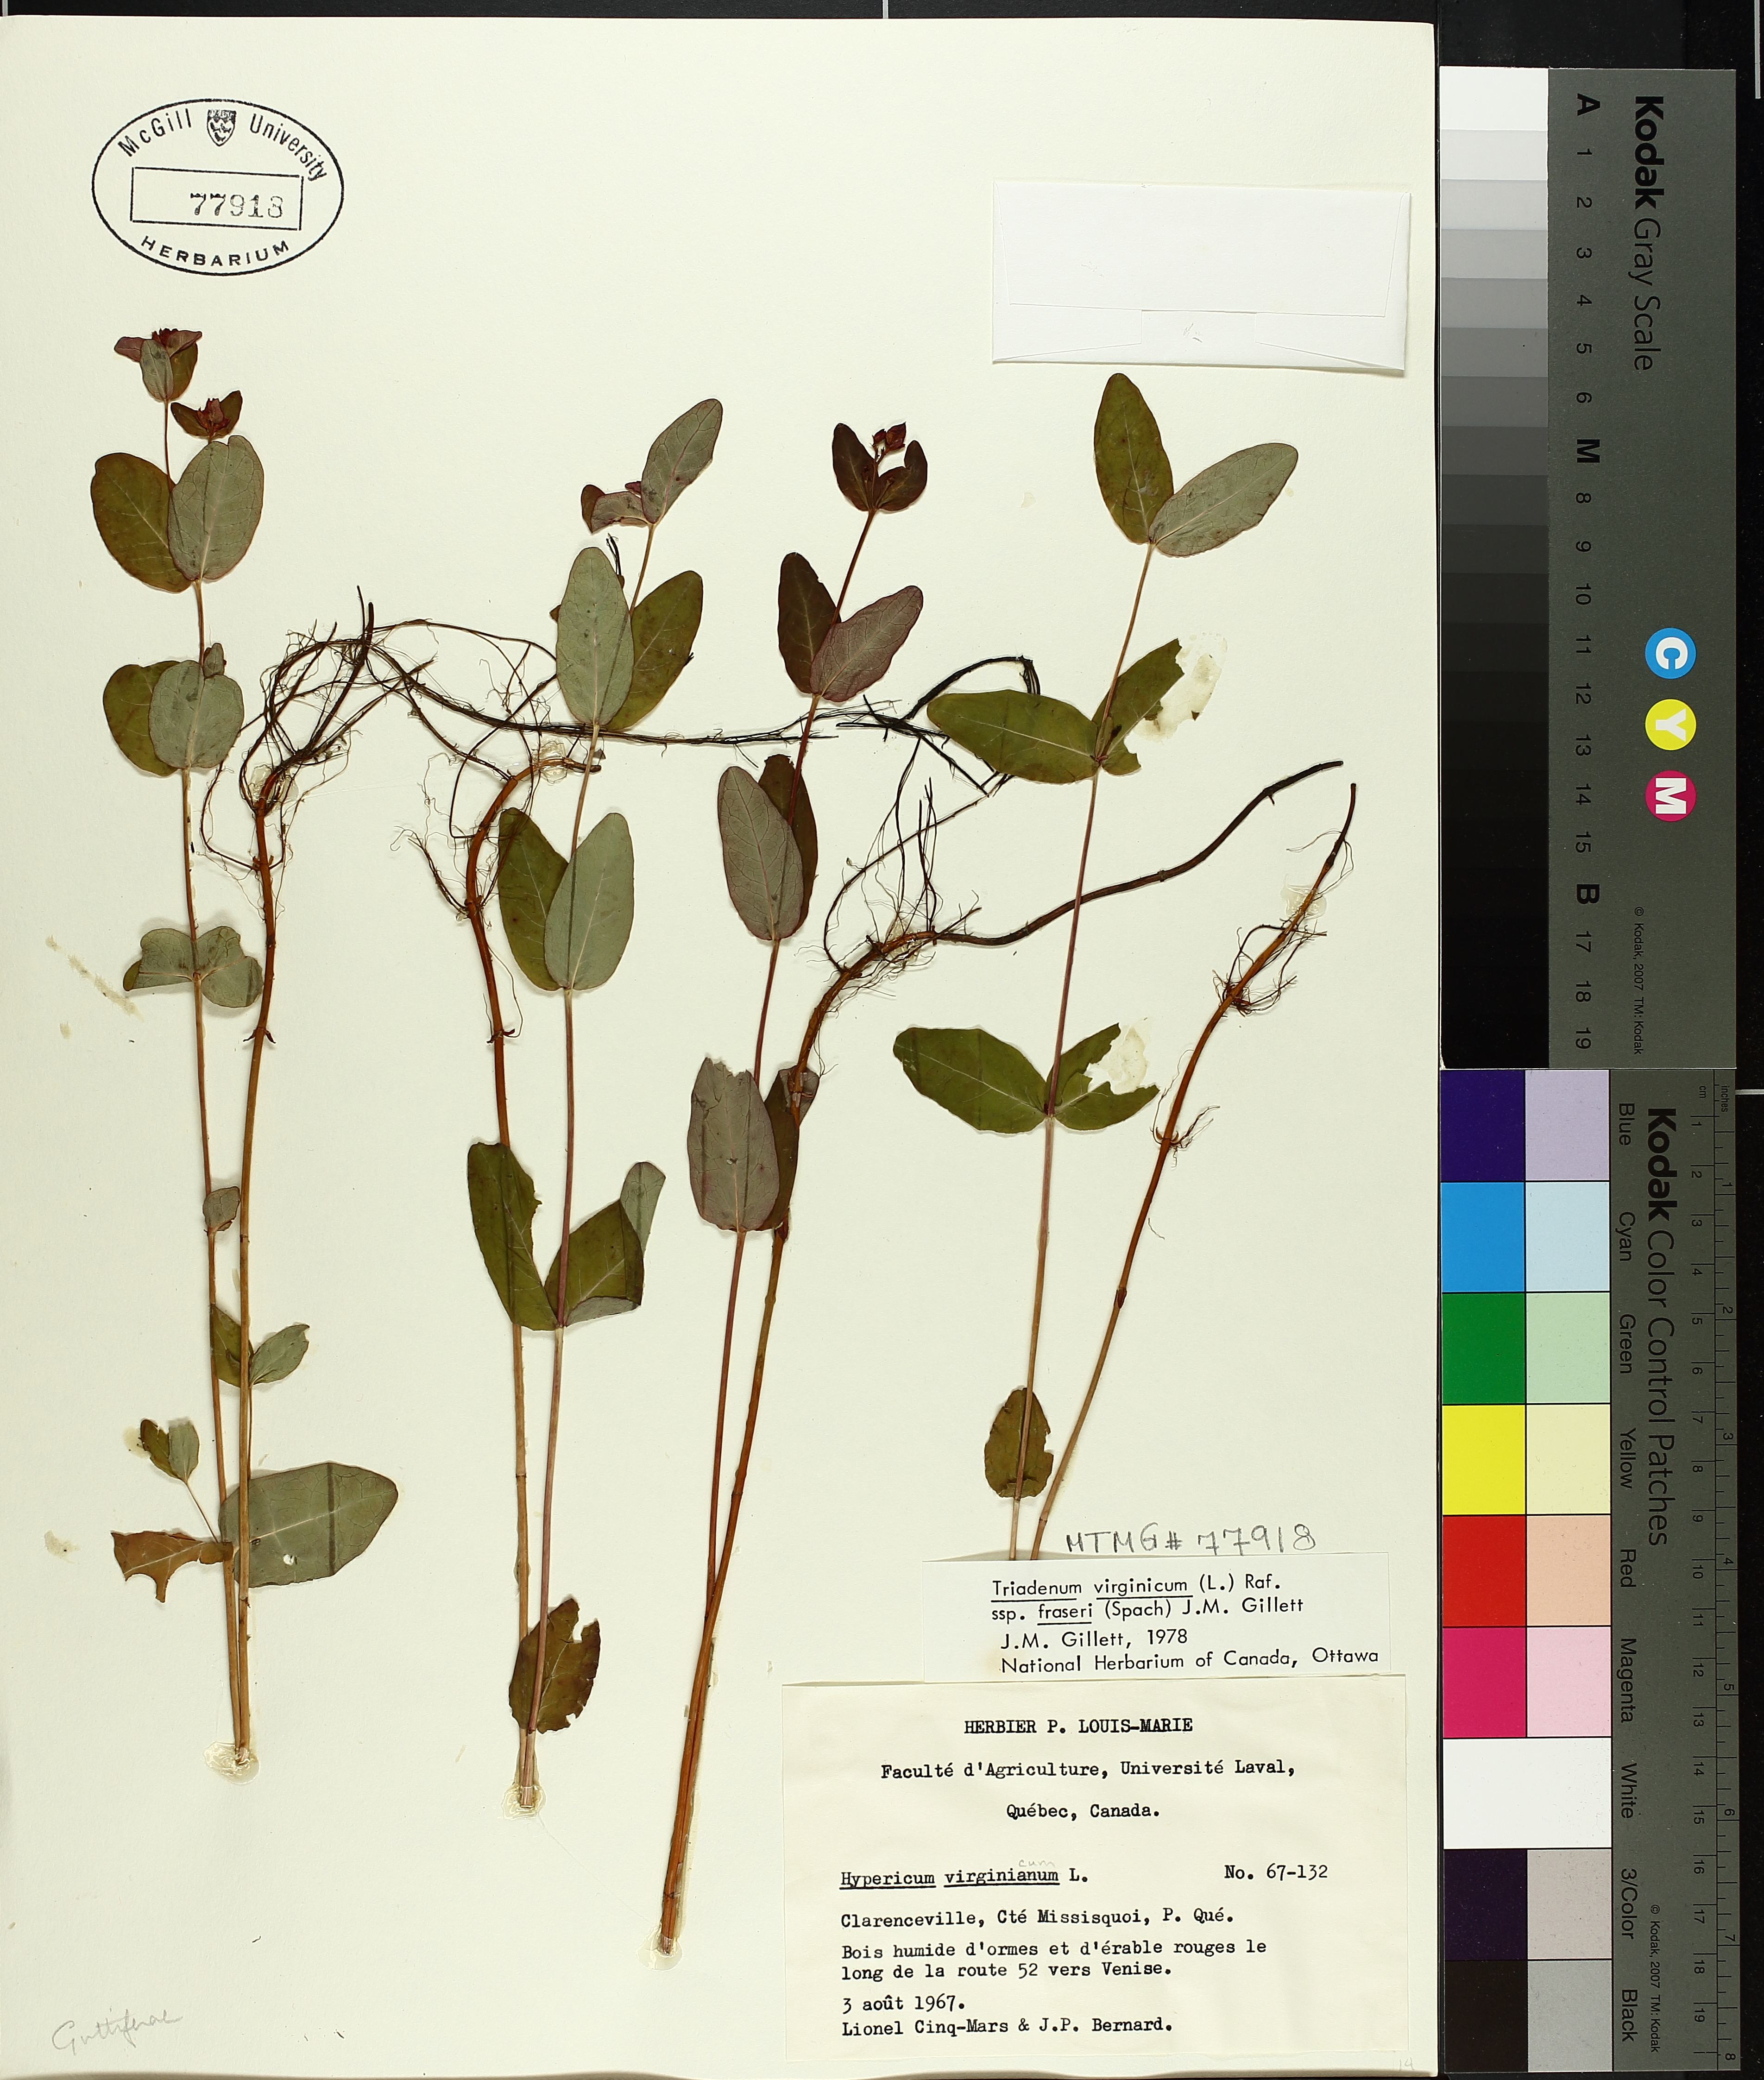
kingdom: Plantae
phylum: Tracheophyta
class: Magnoliopsida
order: Malpighiales
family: Hypericaceae
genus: Triadenum
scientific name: Triadenum fraseri
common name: Fraser's marsh st. johnswort
